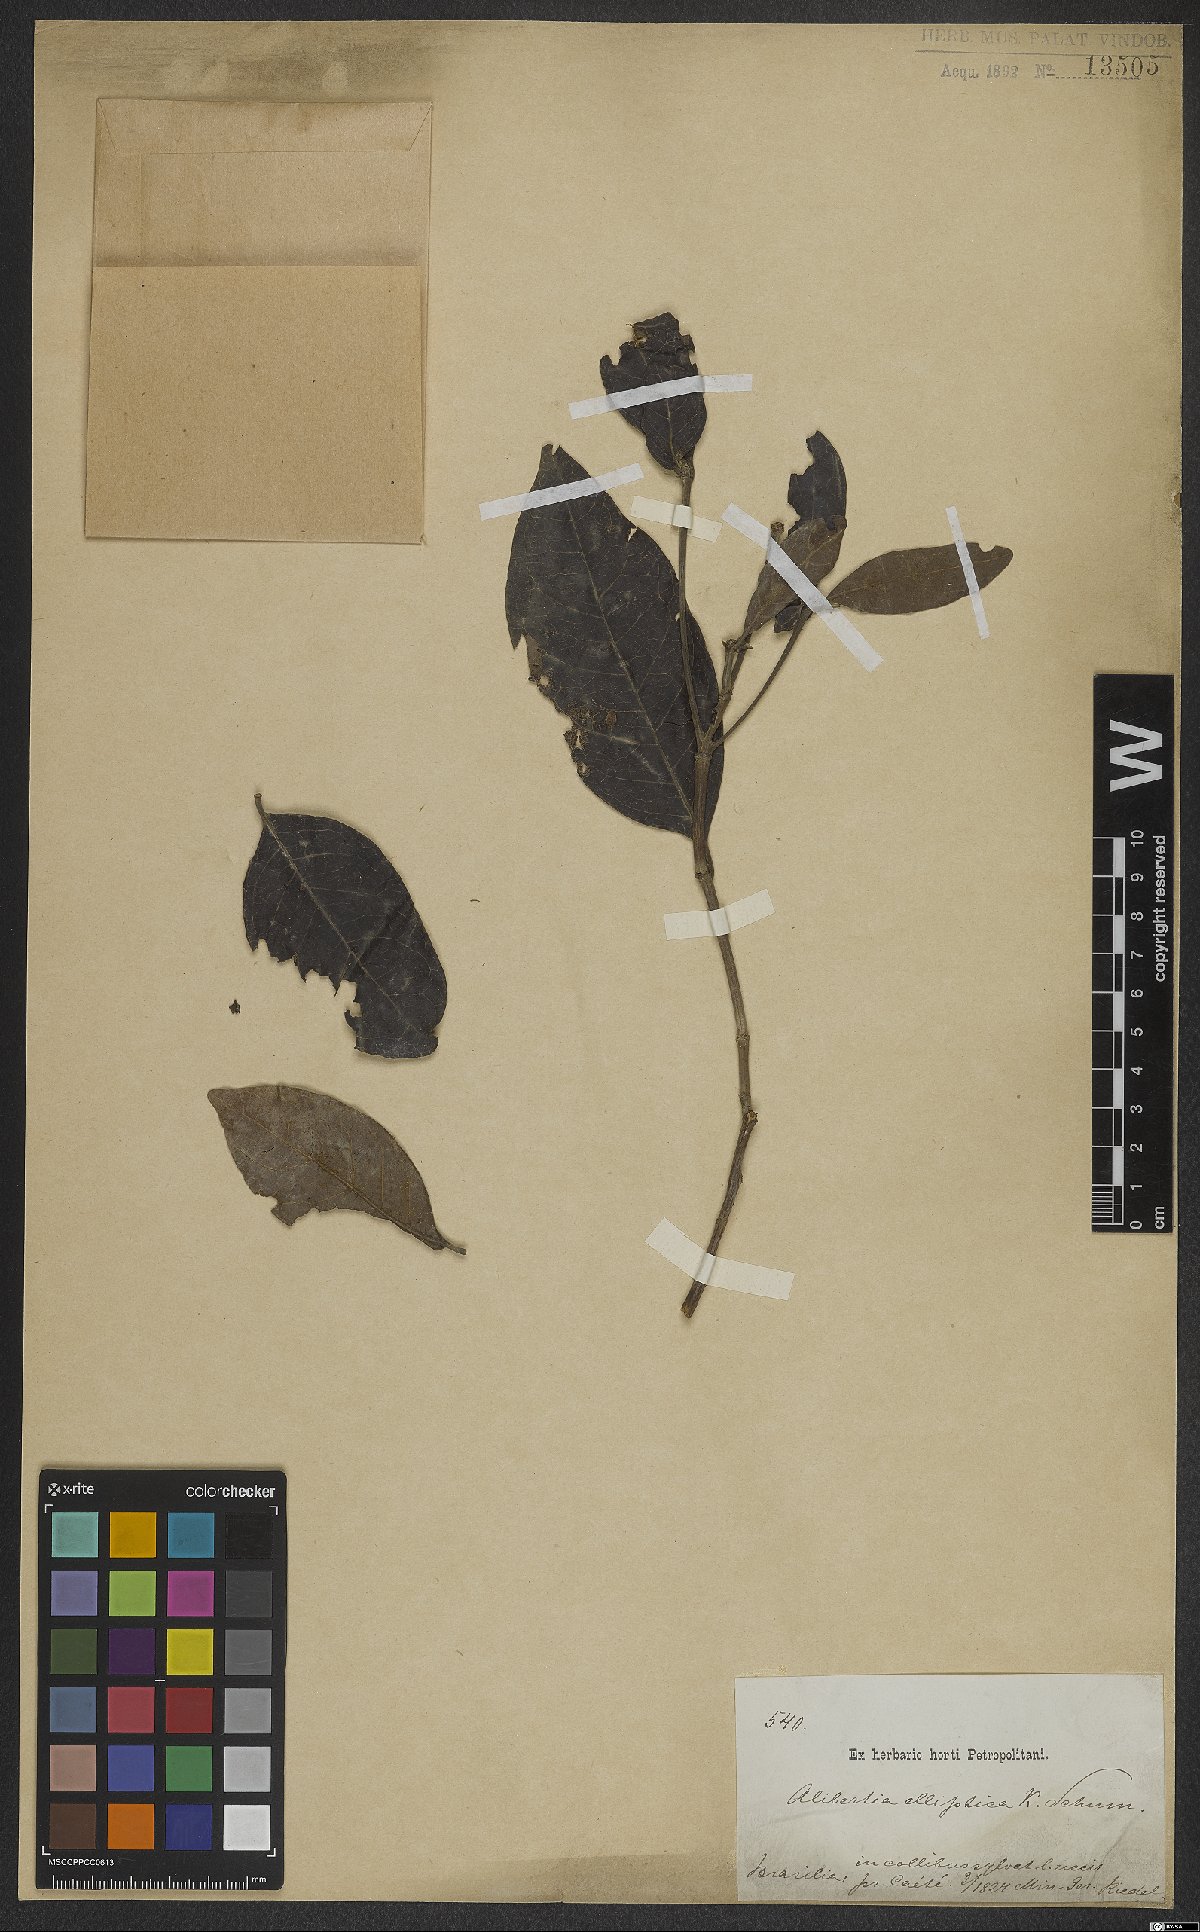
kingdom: Plantae
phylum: Tracheophyta
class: Magnoliopsida
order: Gentianales
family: Rubiaceae
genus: Cordiera
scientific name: Cordiera elliptica
